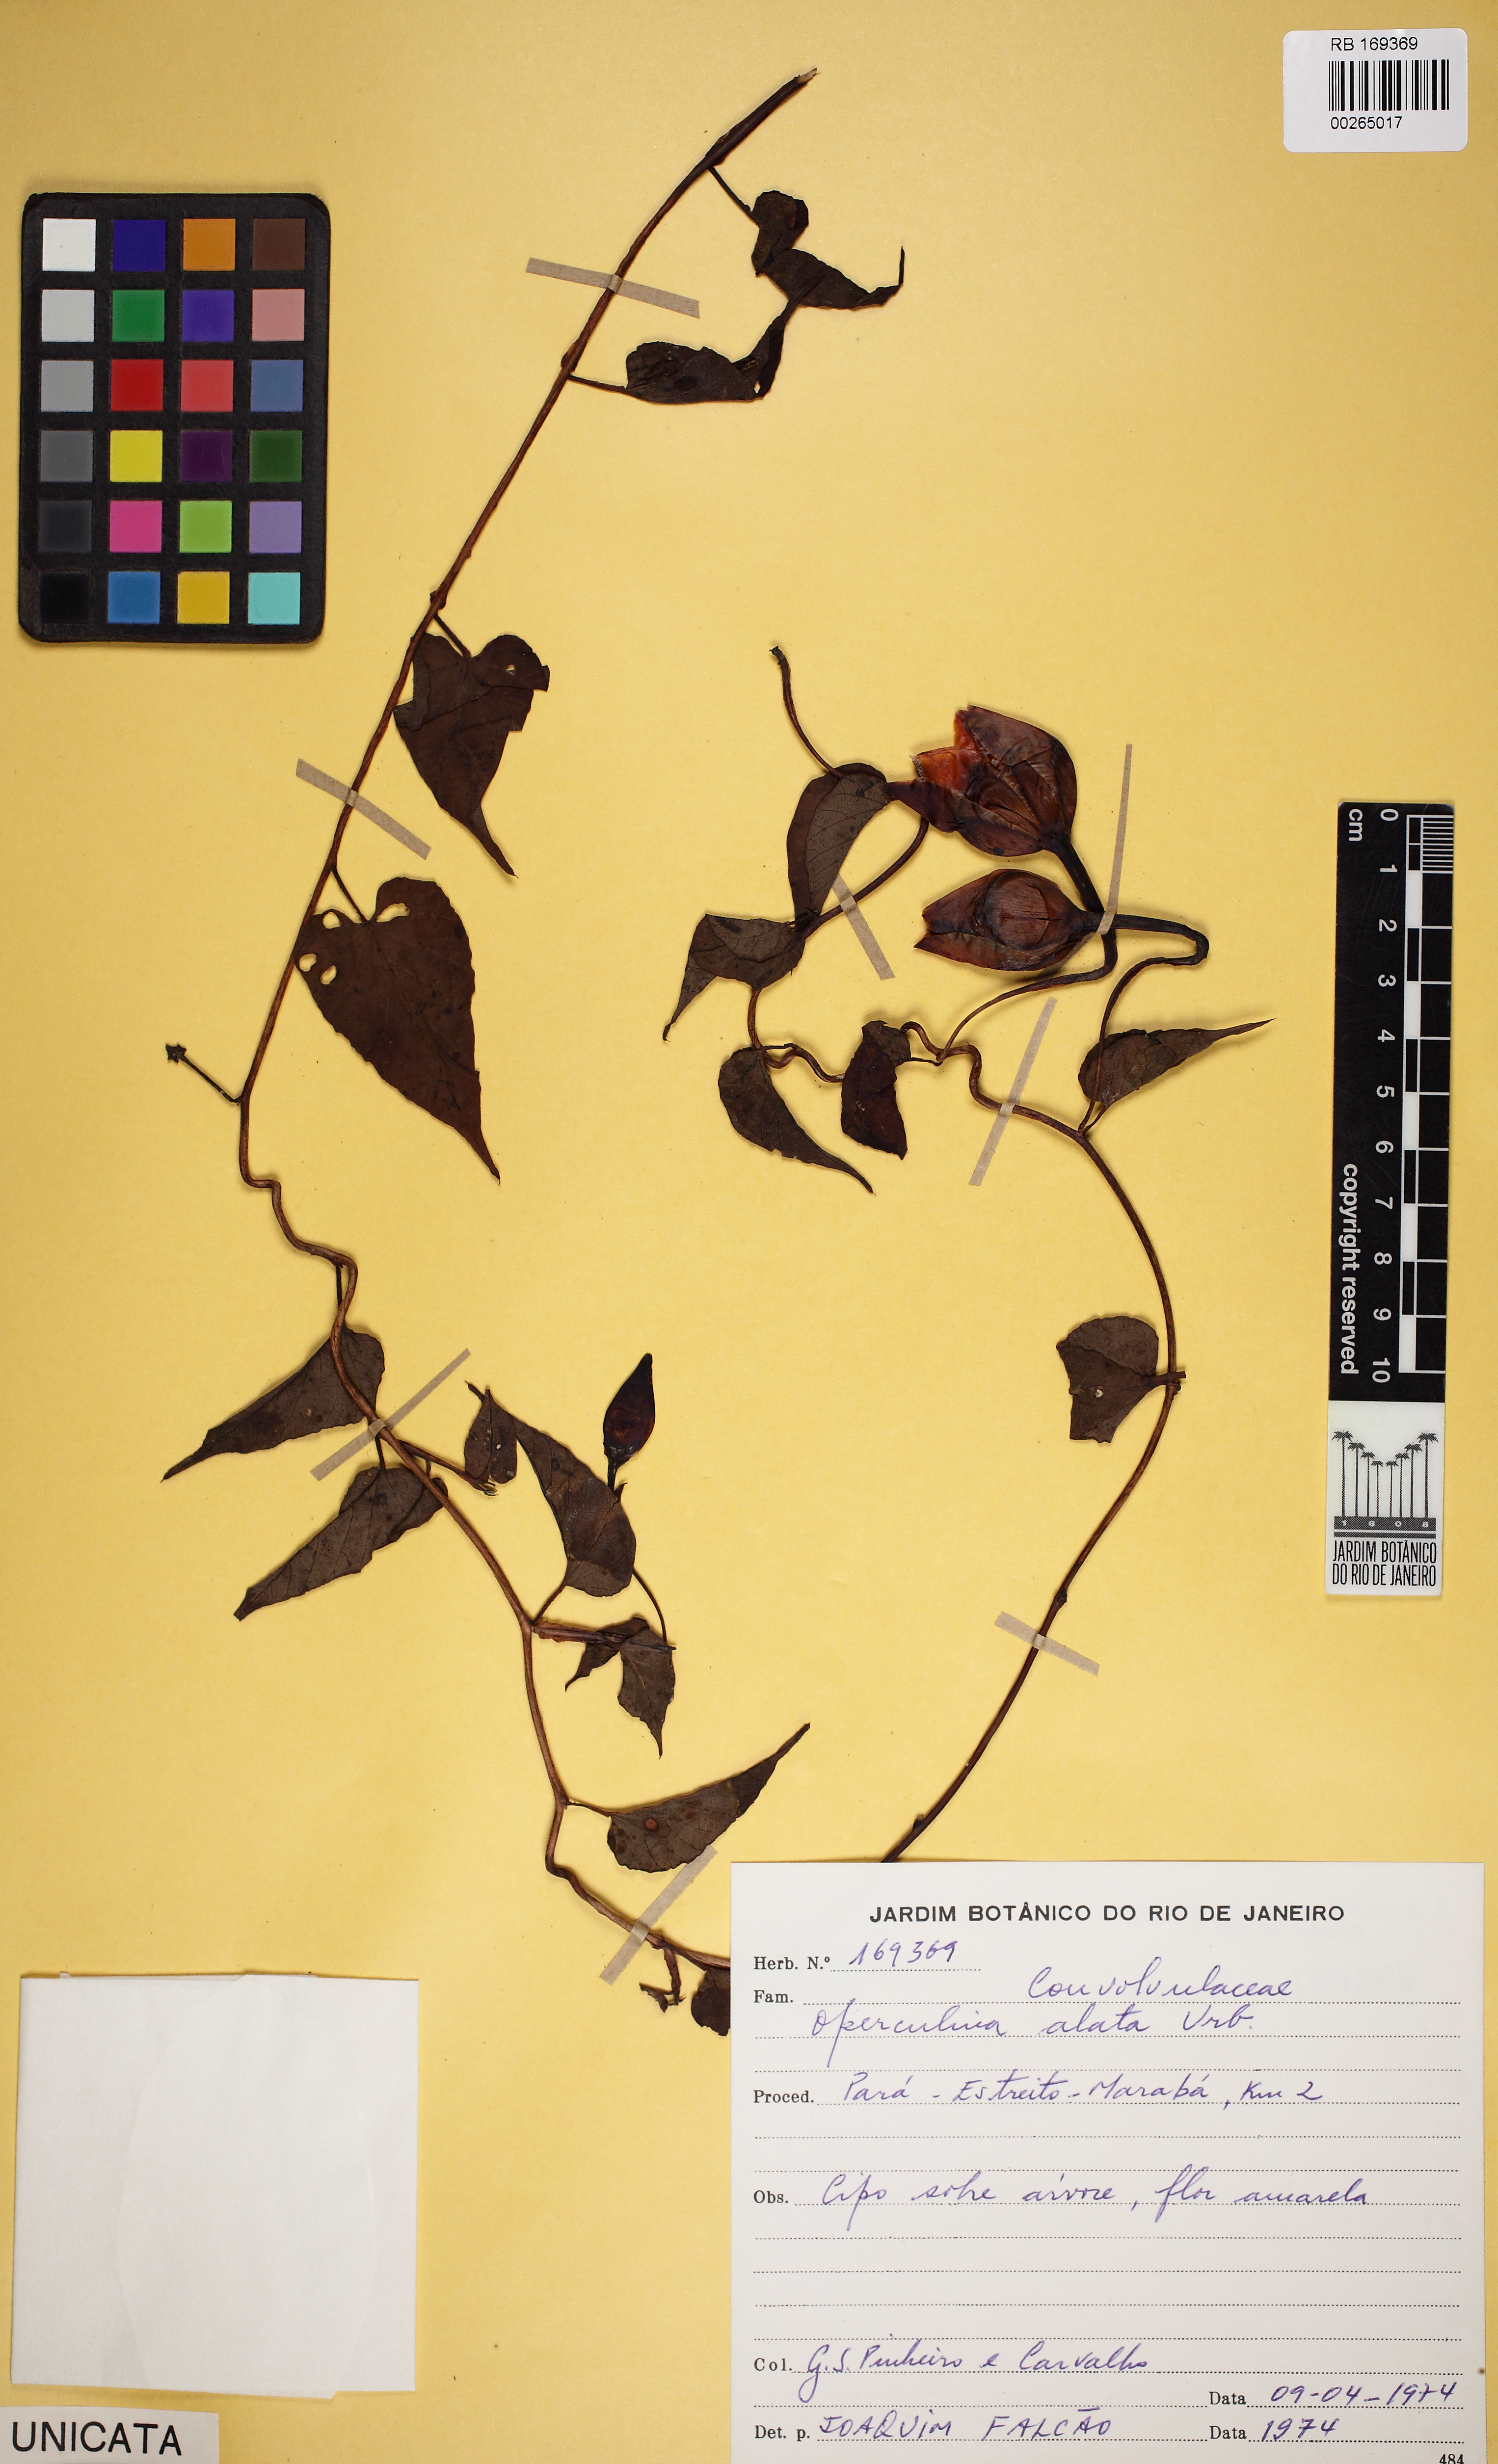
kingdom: Plantae
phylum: Tracheophyta
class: Magnoliopsida
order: Solanales
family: Convolvulaceae
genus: Operculina
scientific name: Operculina hamiltonii
